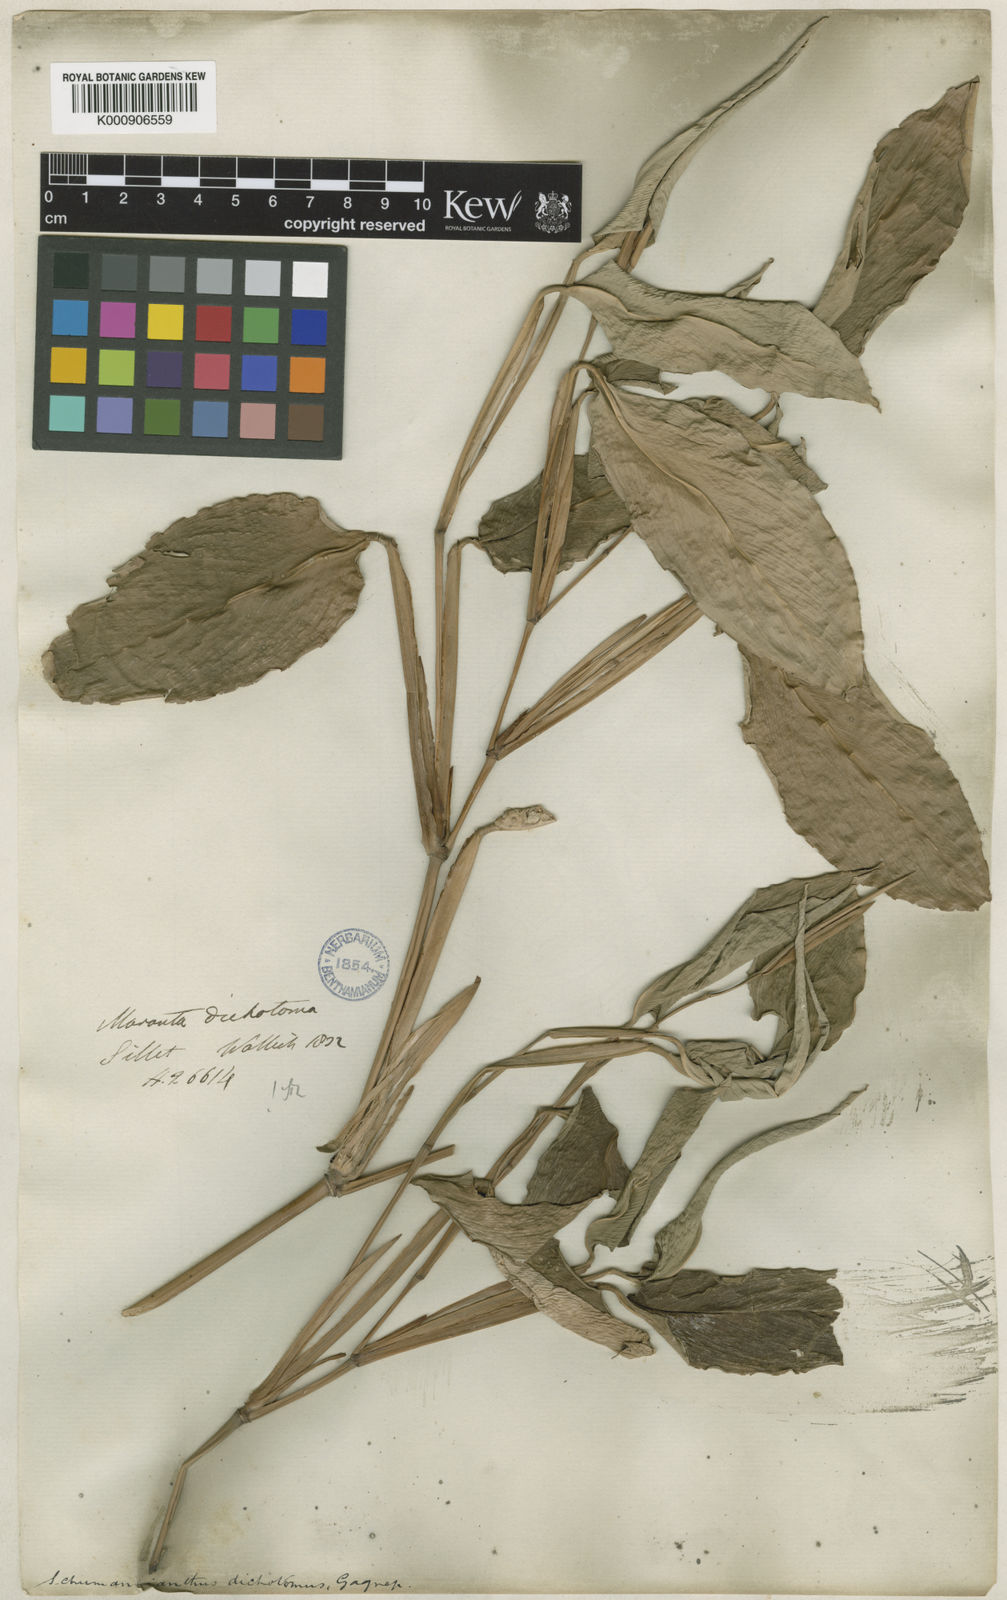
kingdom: Plantae
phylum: Tracheophyta
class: Liliopsida
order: Zingiberales
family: Marantaceae
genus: Schumannianthus
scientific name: Schumannianthus benthamianus
